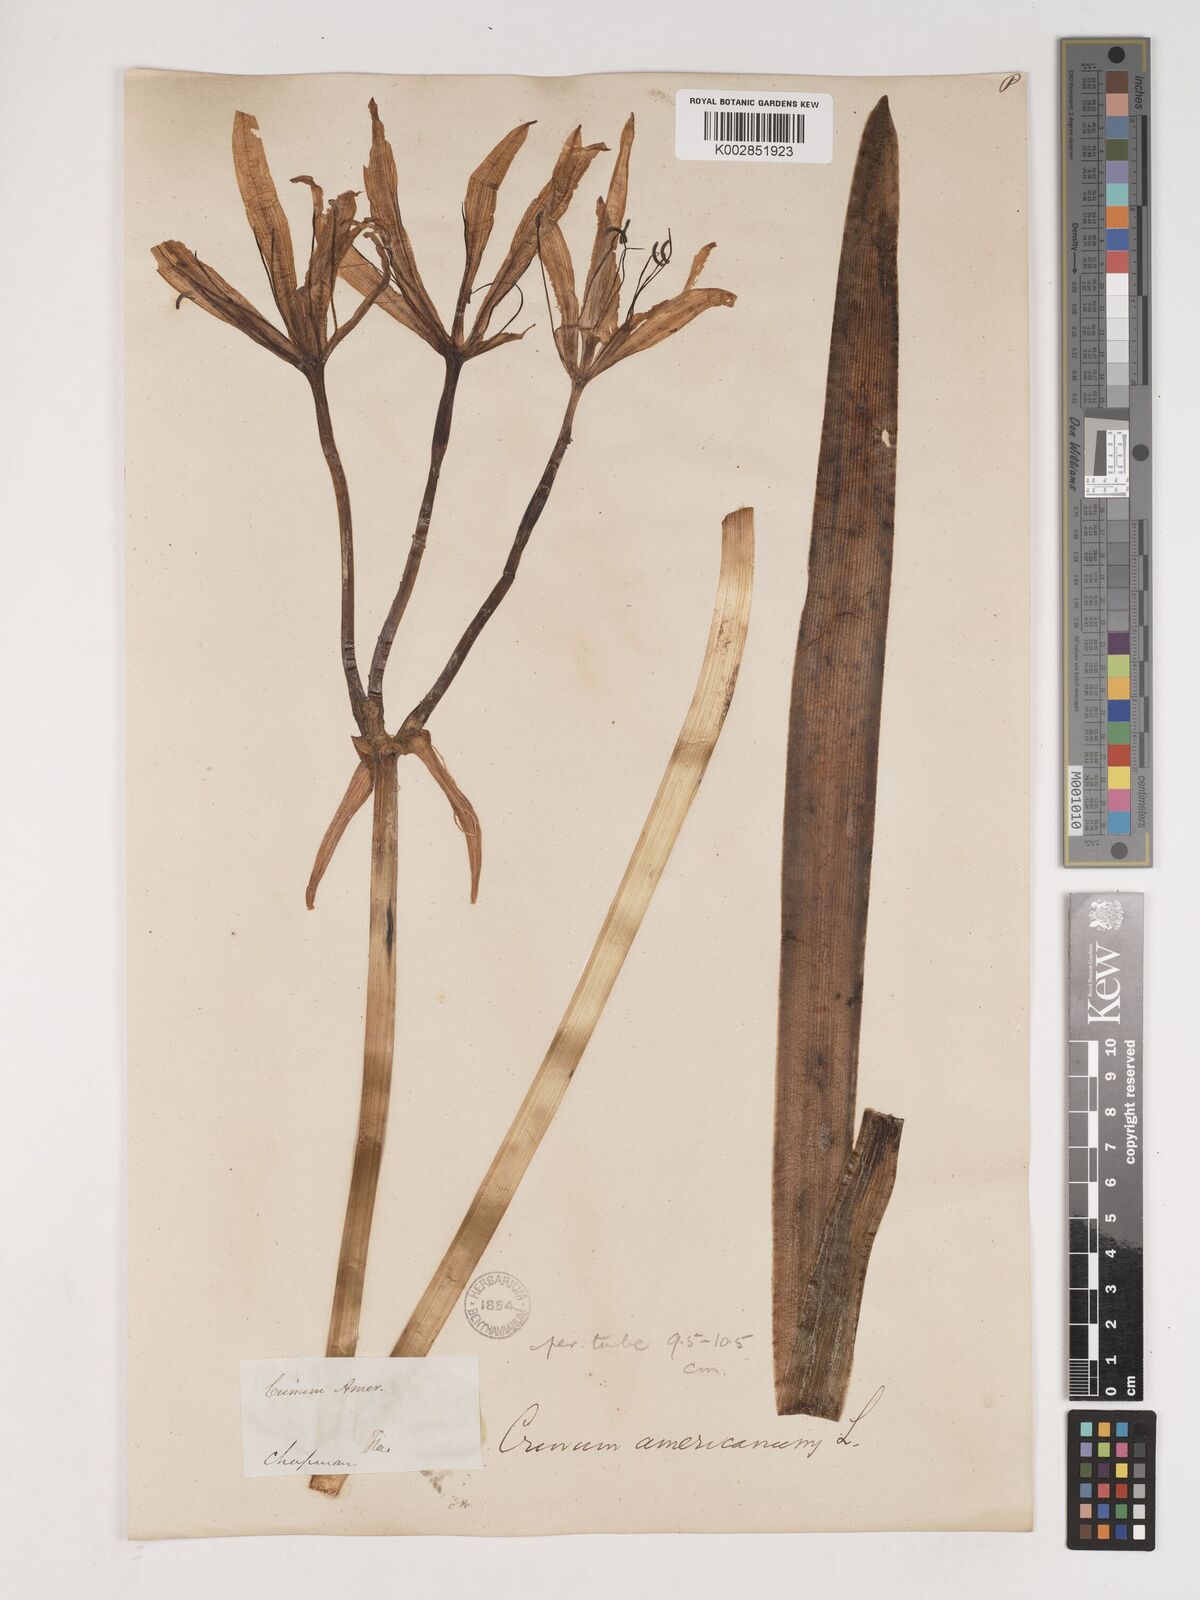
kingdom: Plantae
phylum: Tracheophyta
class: Liliopsida
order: Asparagales
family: Amaryllidaceae
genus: Crinum
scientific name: Crinum americanum
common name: Florida swamp-lily
